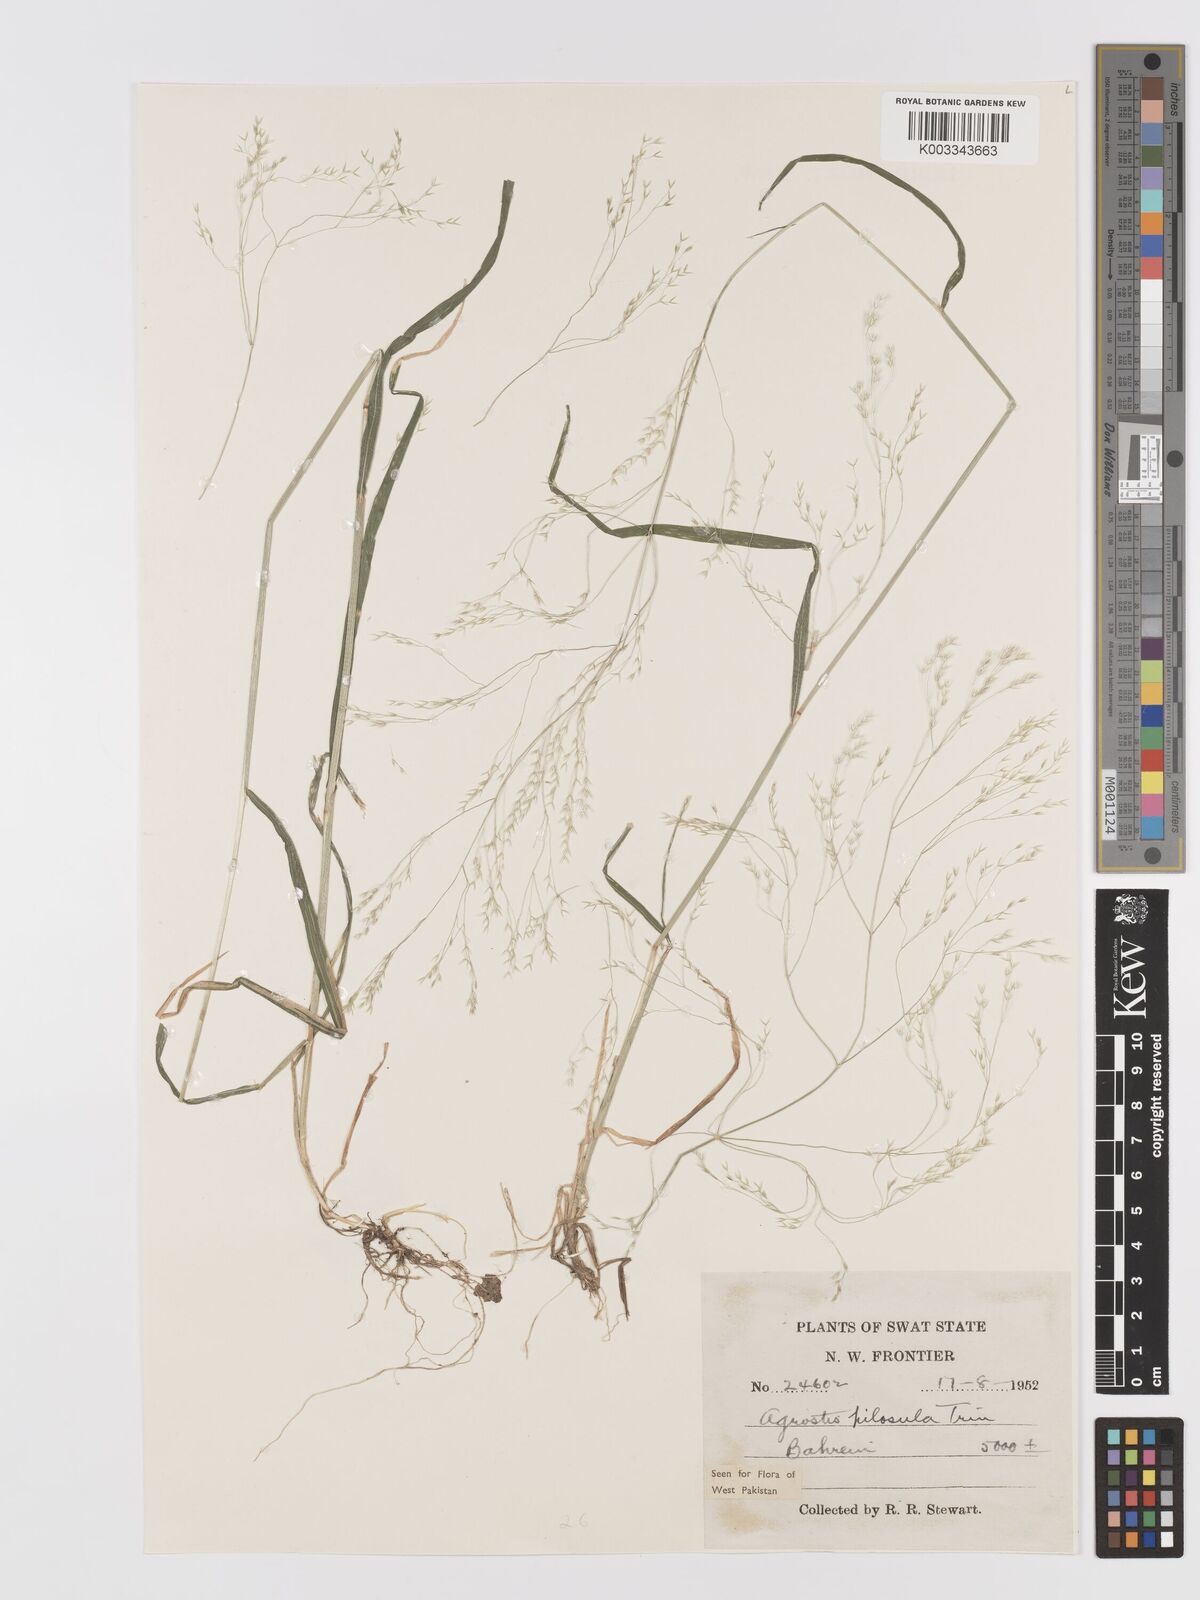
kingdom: Plantae
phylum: Tracheophyta
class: Liliopsida
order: Poales
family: Poaceae
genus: Agrostis
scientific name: Agrostis pilosula
